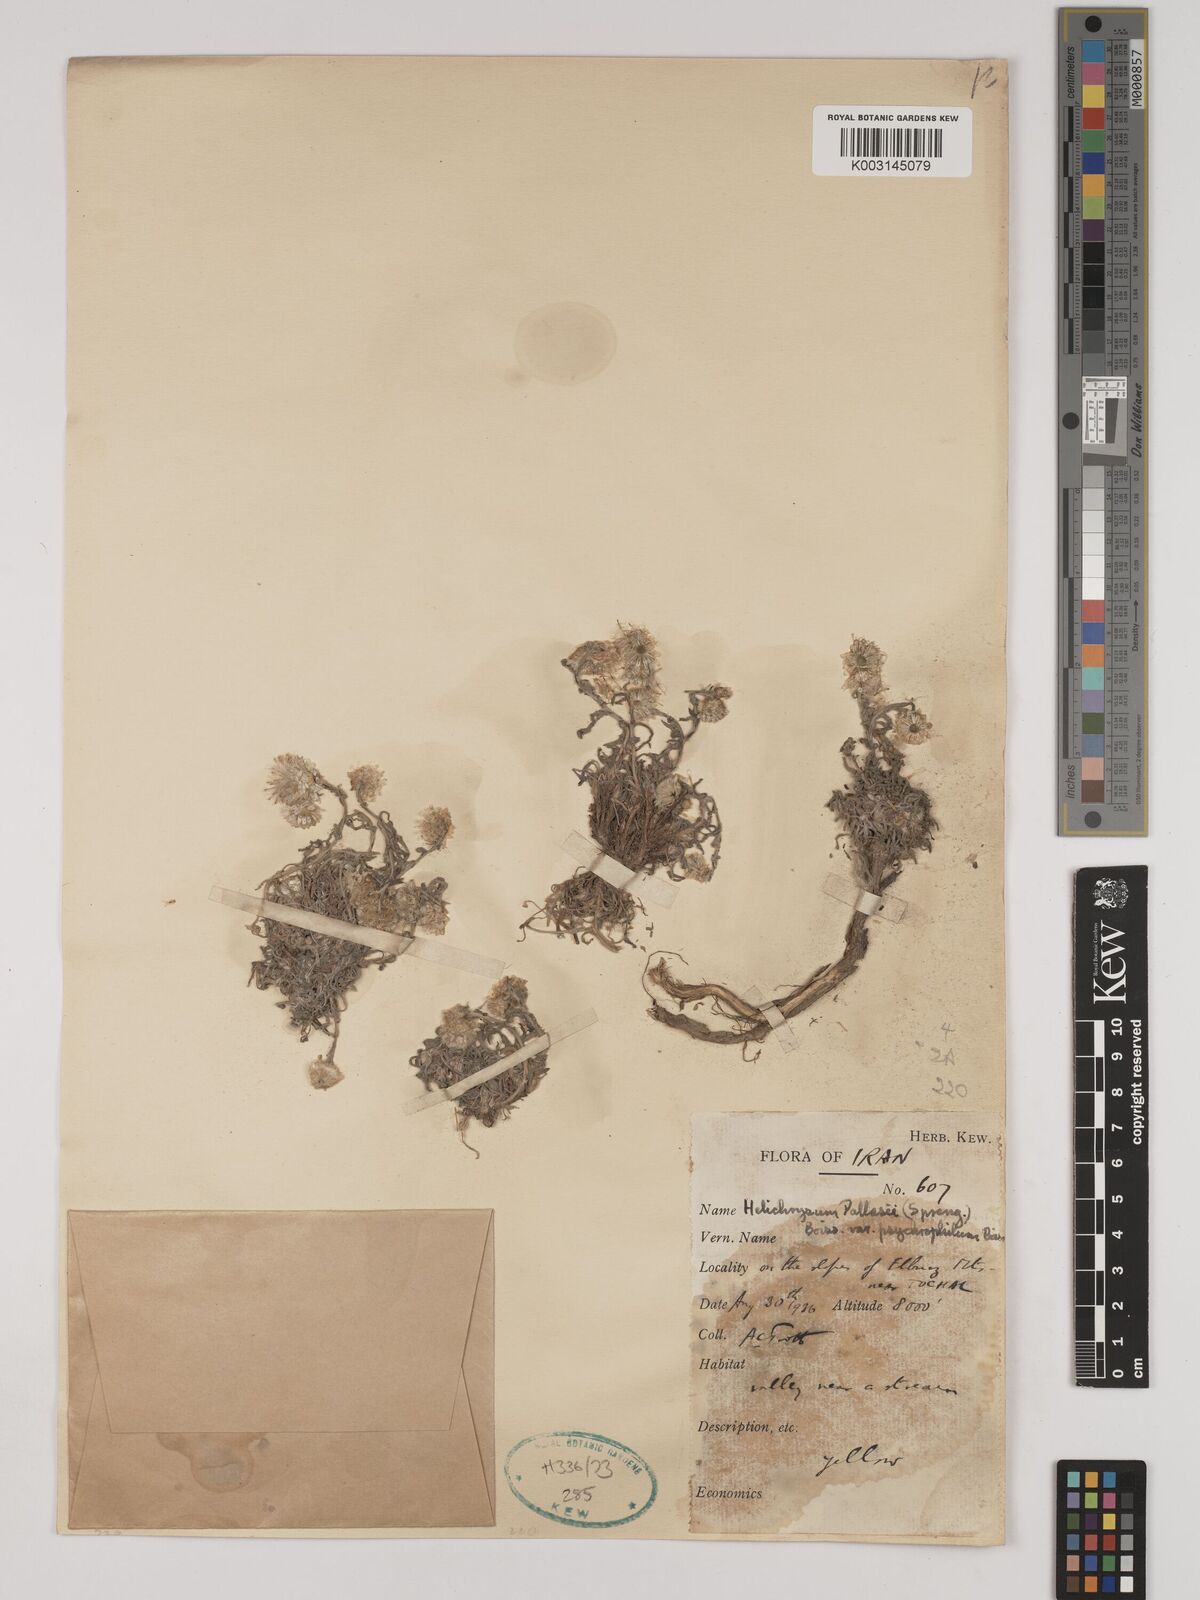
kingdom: Plantae
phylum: Tracheophyta
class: Magnoliopsida
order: Asterales
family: Asteraceae
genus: Helichrysum
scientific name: Helichrysum pallasii
